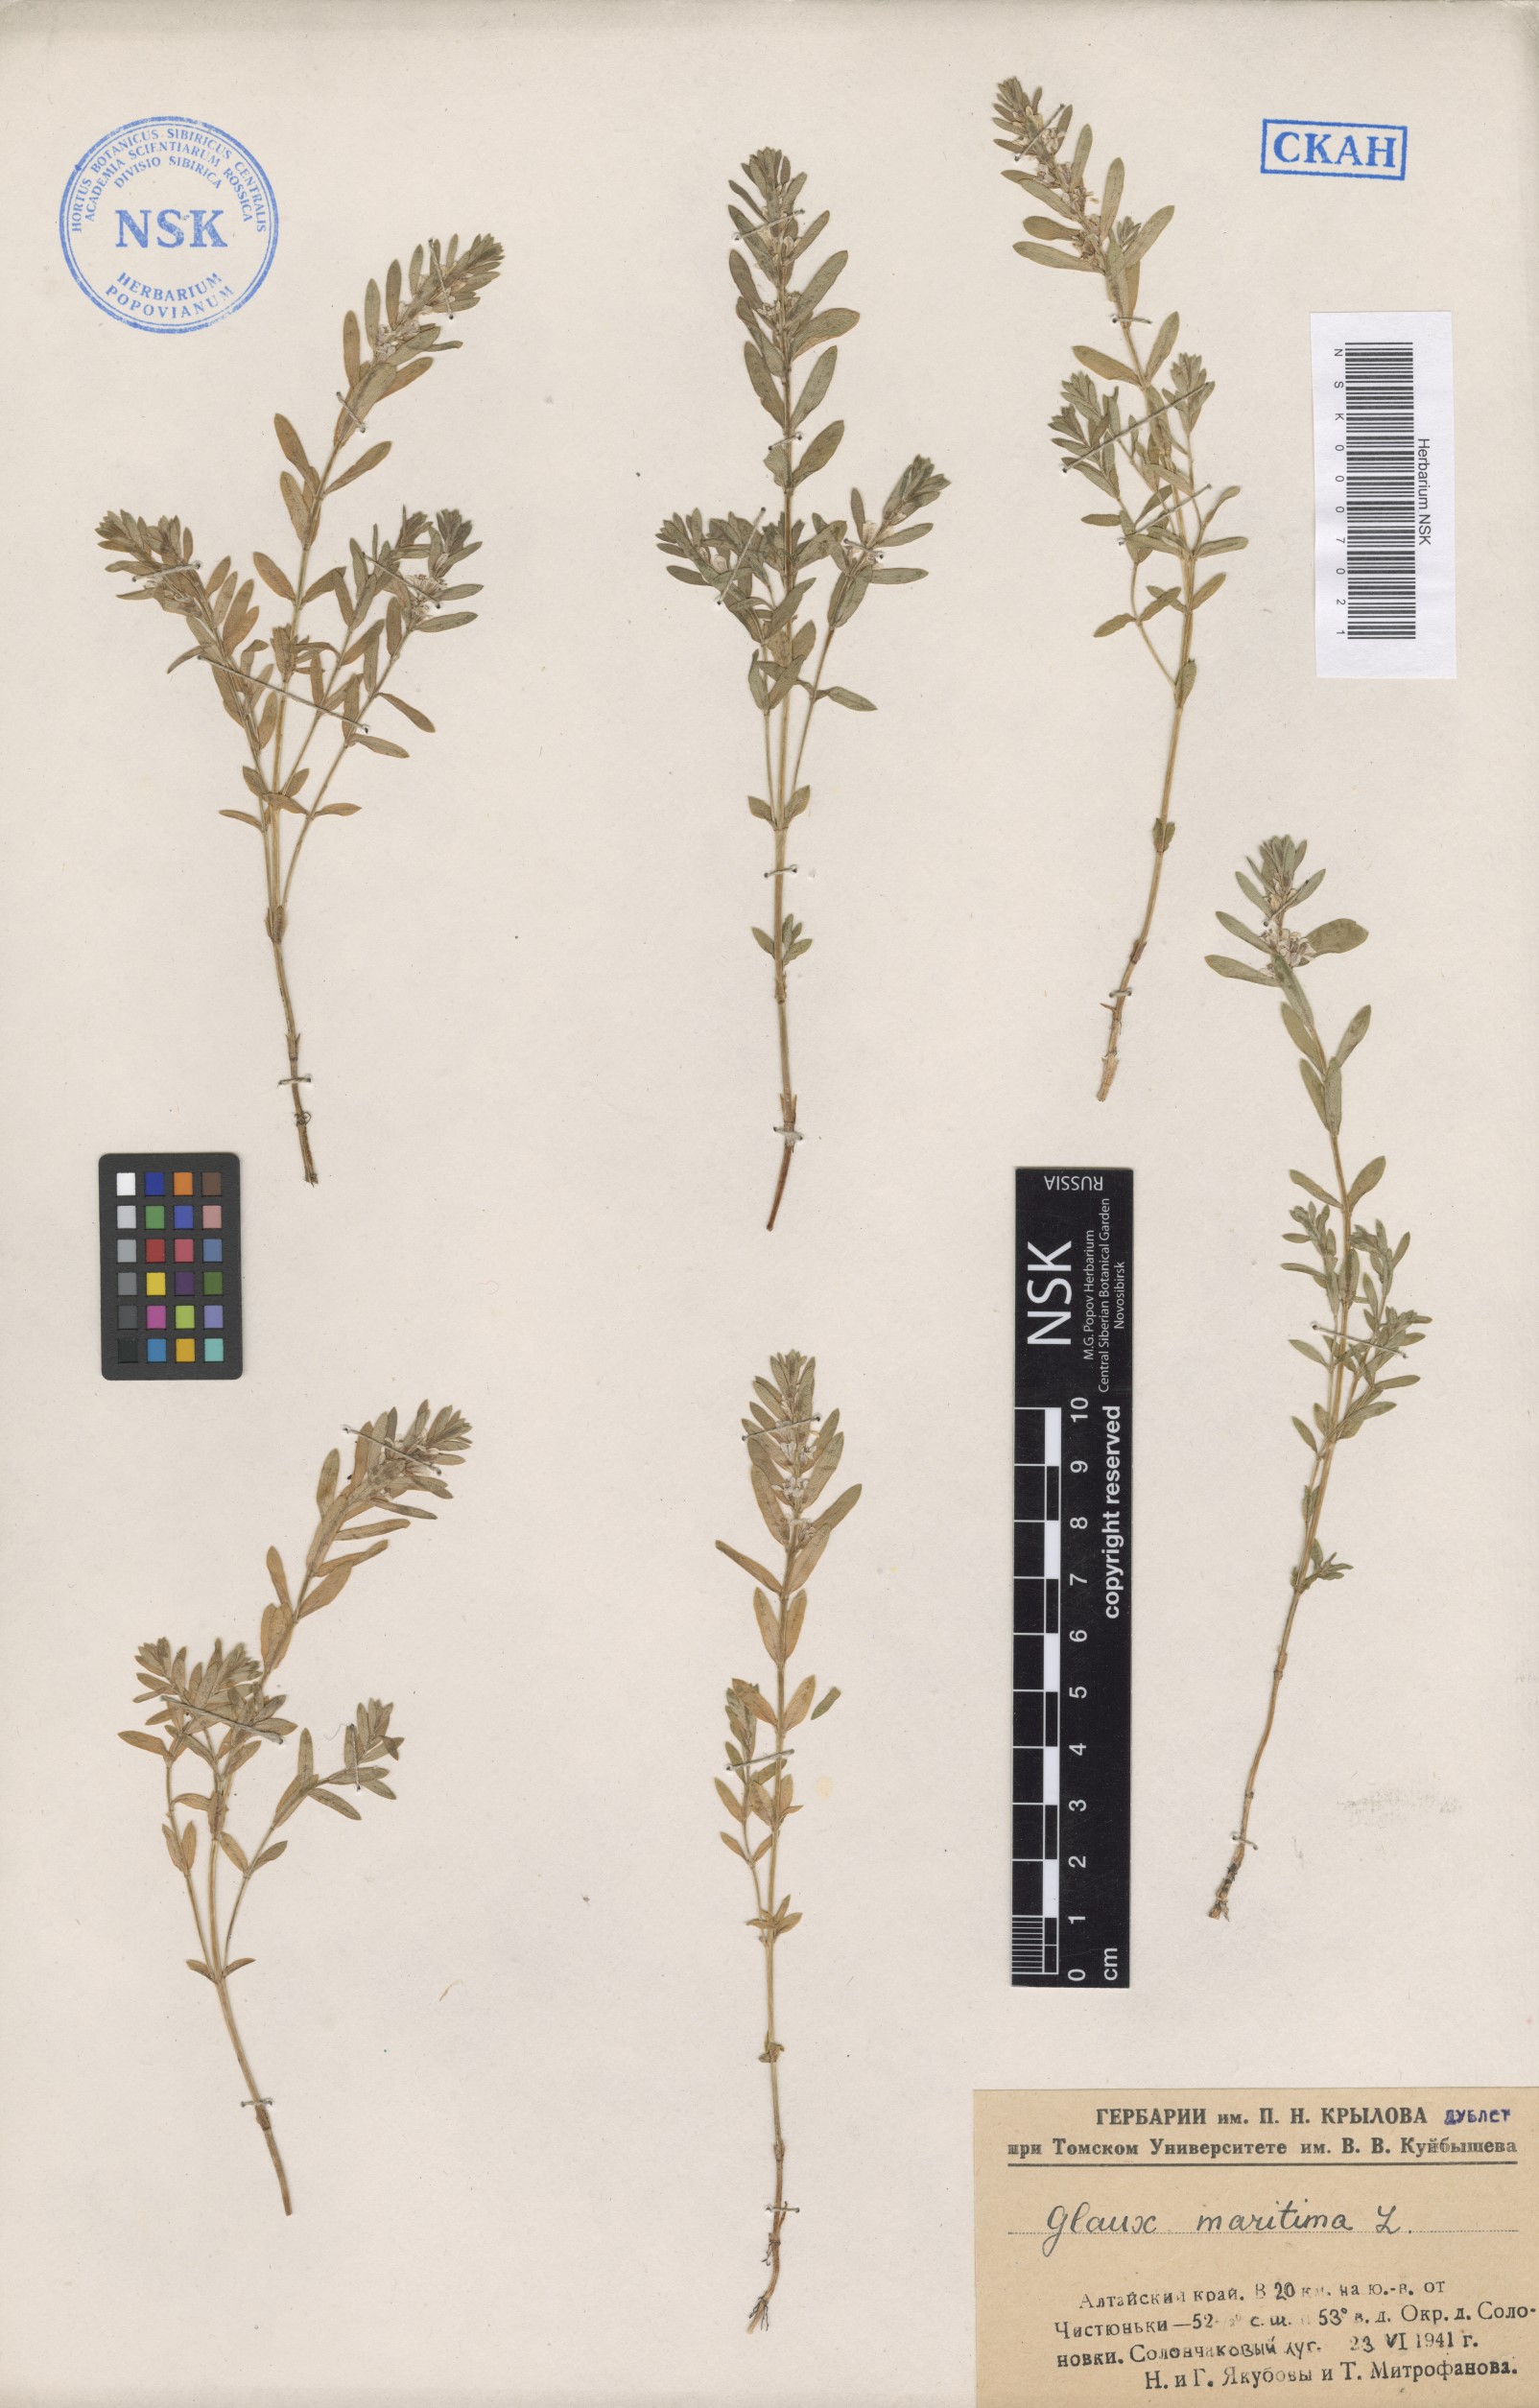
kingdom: Plantae
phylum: Tracheophyta
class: Magnoliopsida
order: Ericales
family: Primulaceae
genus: Lysimachia
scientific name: Lysimachia maritima
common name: Sea milkwort
